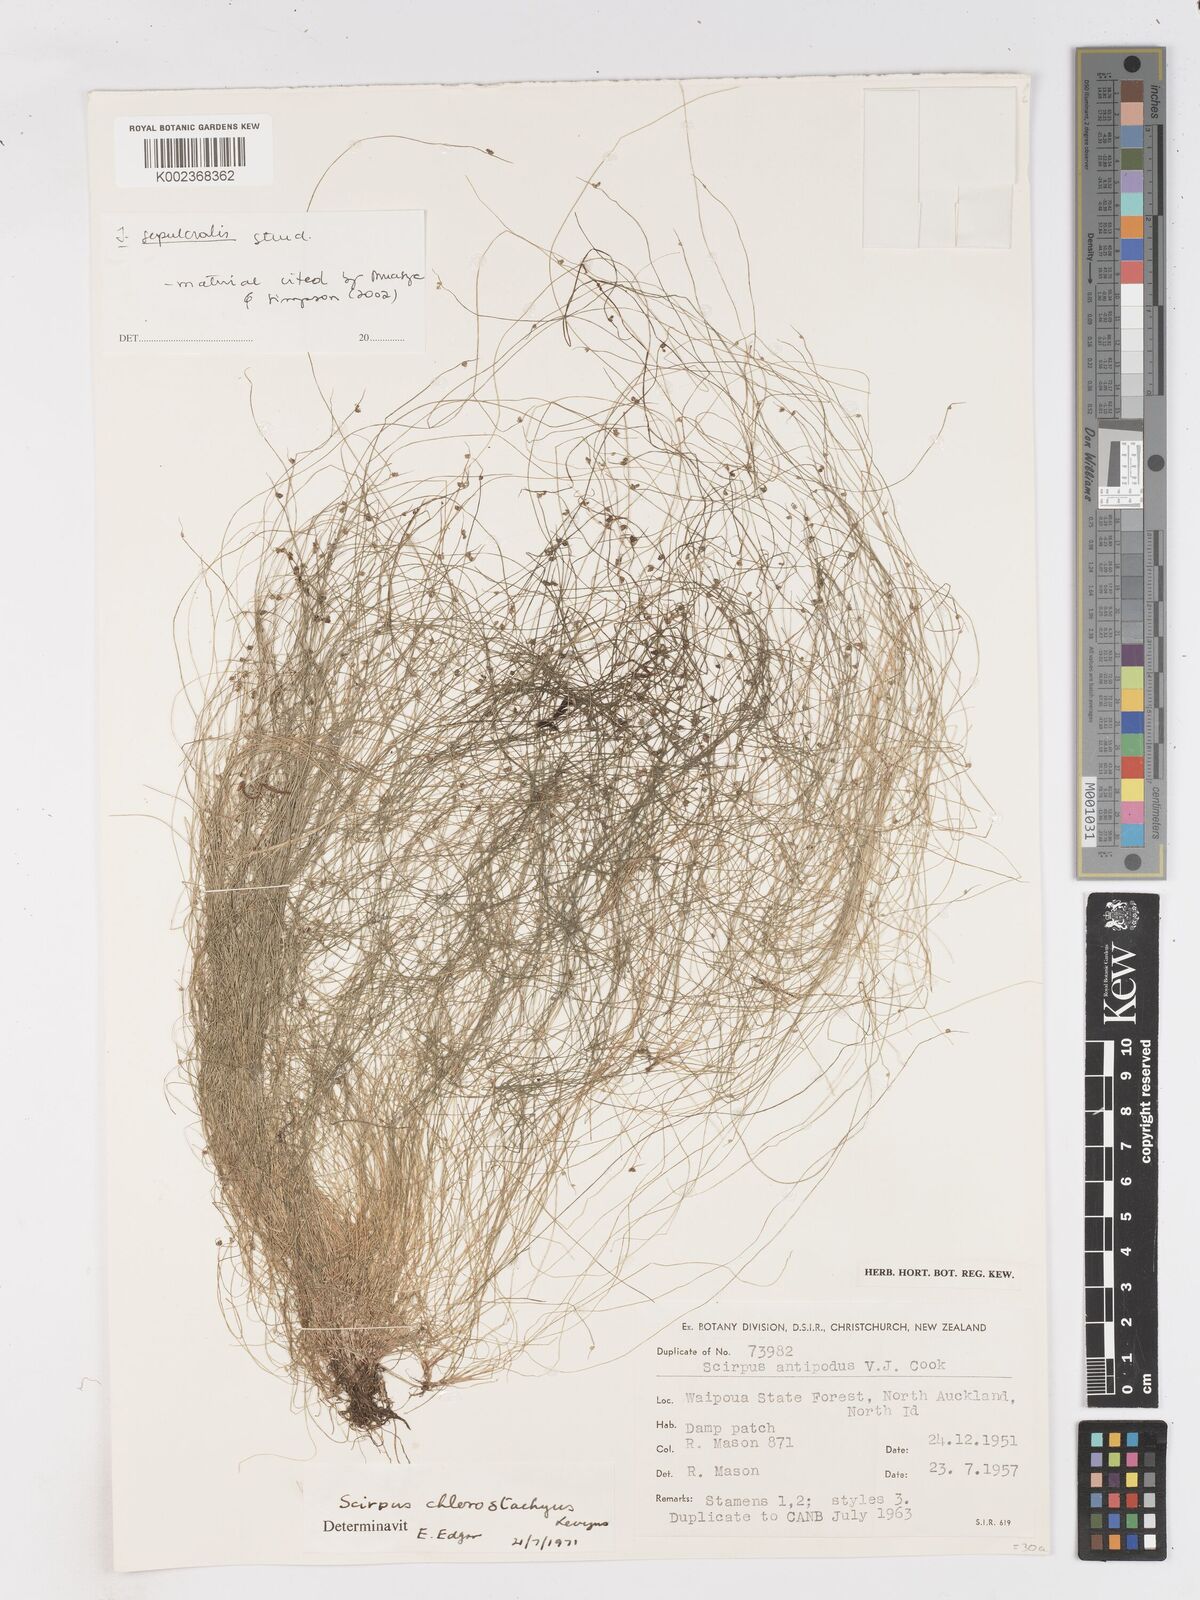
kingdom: Plantae
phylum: Tracheophyta
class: Liliopsida
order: Poales
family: Cyperaceae
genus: Isolepis
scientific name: Isolepis sepulcralis
